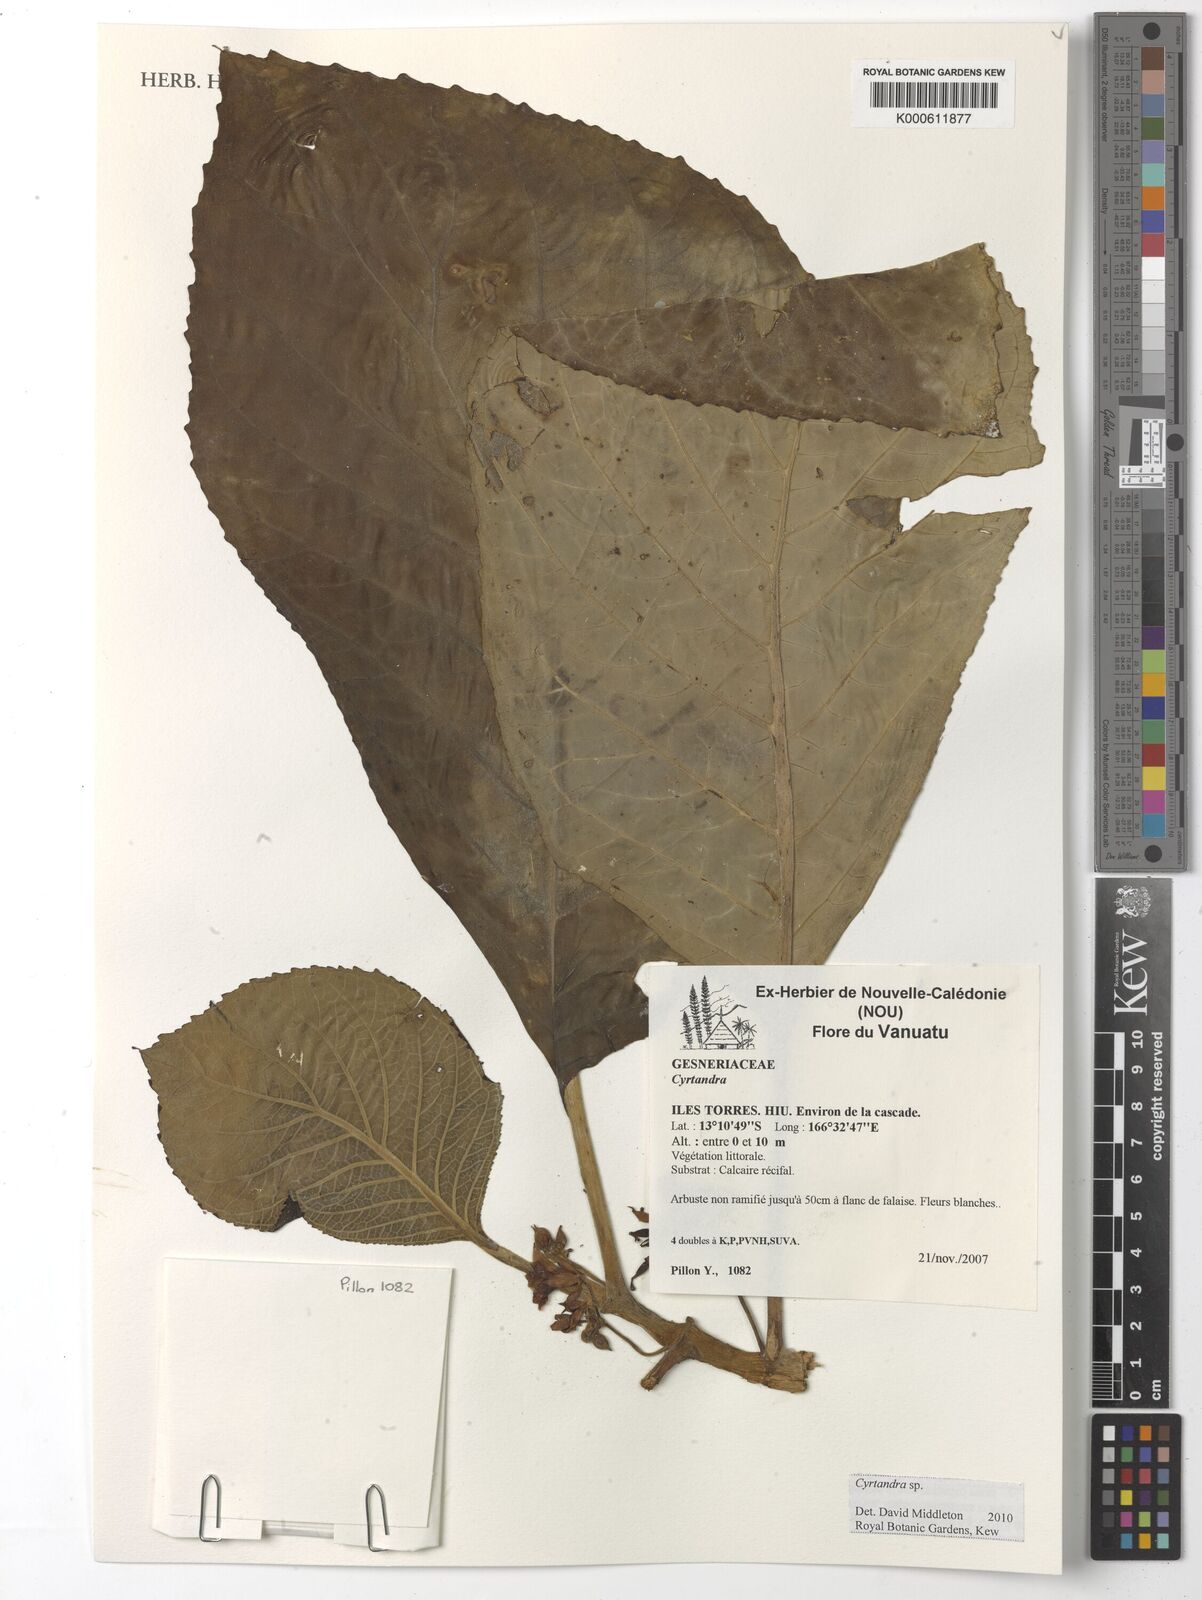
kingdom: Plantae
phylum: Tracheophyta
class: Magnoliopsida
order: Lamiales
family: Gesneriaceae
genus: Cyrtandra
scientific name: Cyrtandra
